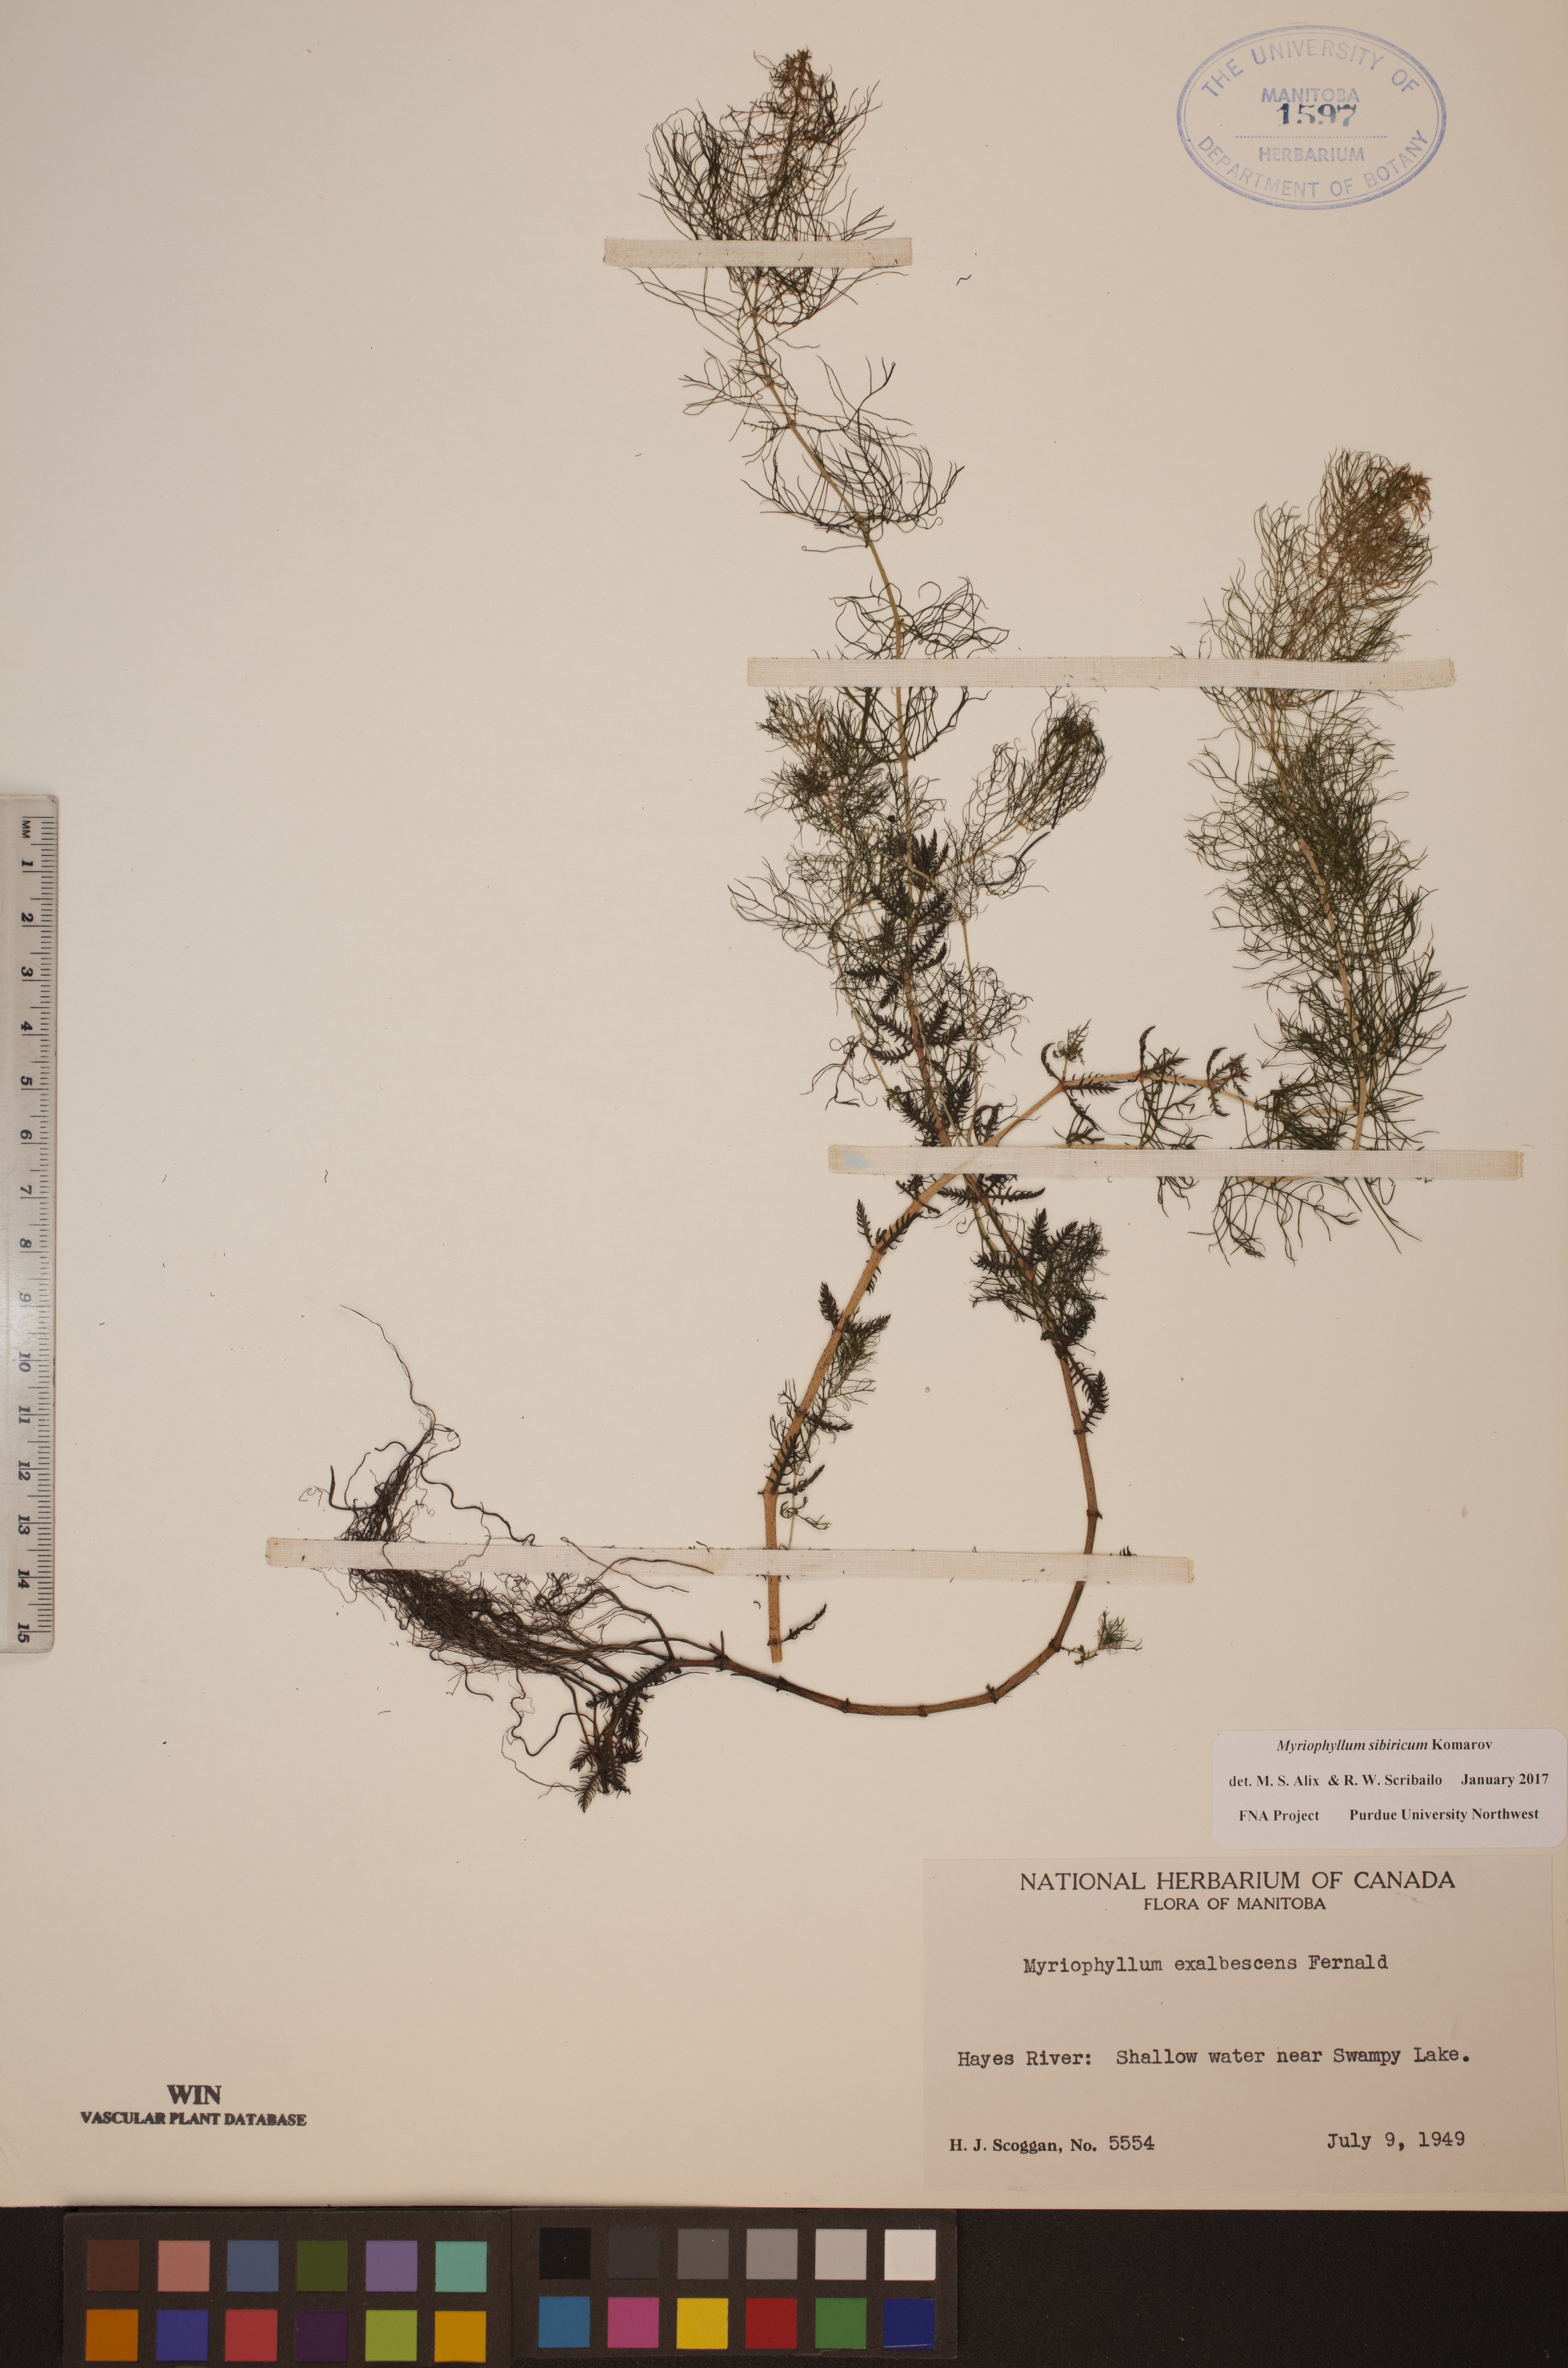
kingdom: Plantae
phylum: Tracheophyta
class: Magnoliopsida
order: Saxifragales
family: Haloragaceae
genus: Myriophyllum
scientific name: Myriophyllum sibiricum
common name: Siberian water-milfoil
